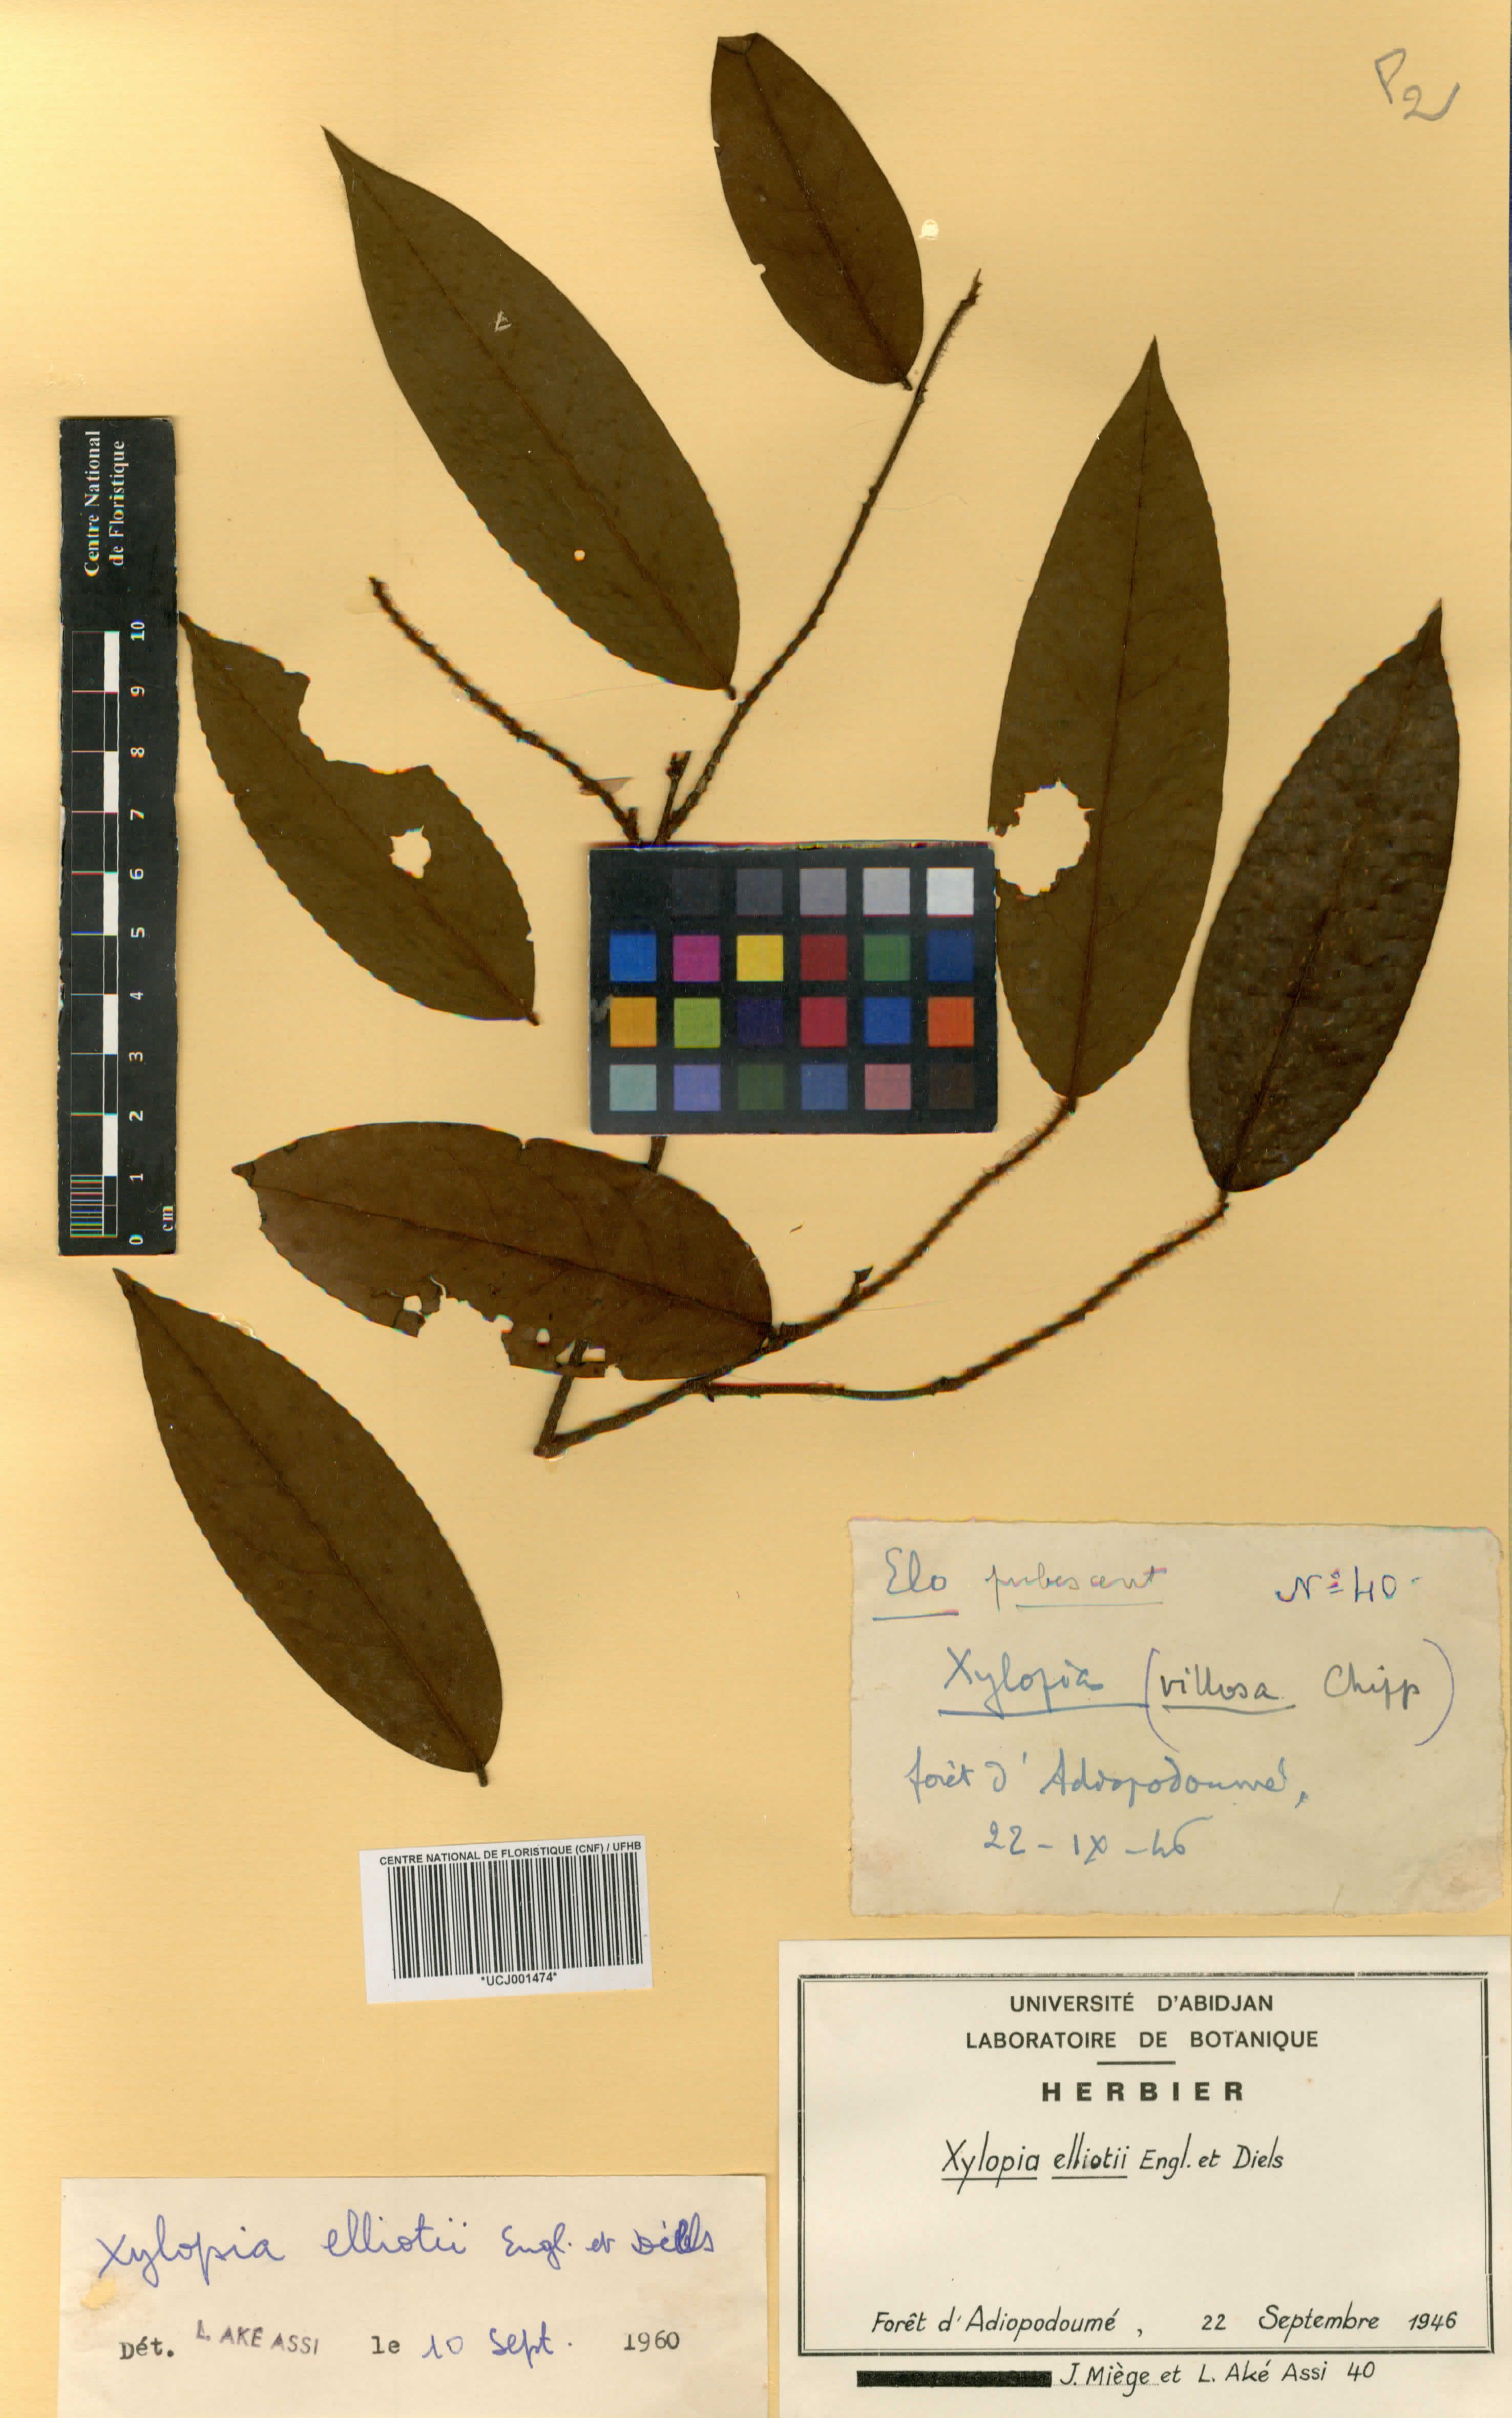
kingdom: Plantae
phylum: Tracheophyta
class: Magnoliopsida
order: Magnoliales
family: Annonaceae
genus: Xylopia
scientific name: Xylopia elliotii
